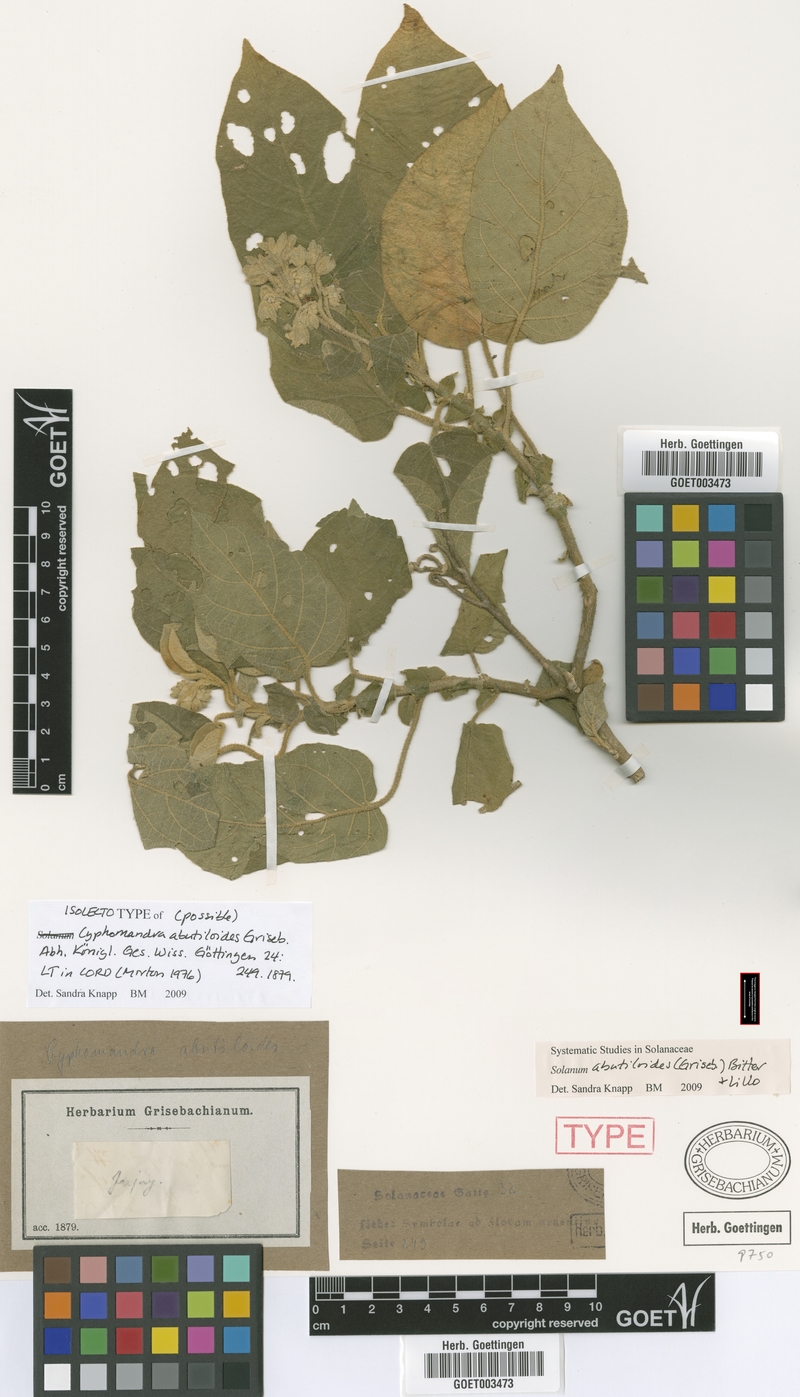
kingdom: Plantae
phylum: Tracheophyta
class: Magnoliopsida
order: Solanales
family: Solanaceae
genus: Solanum
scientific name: Solanum abutiloides
